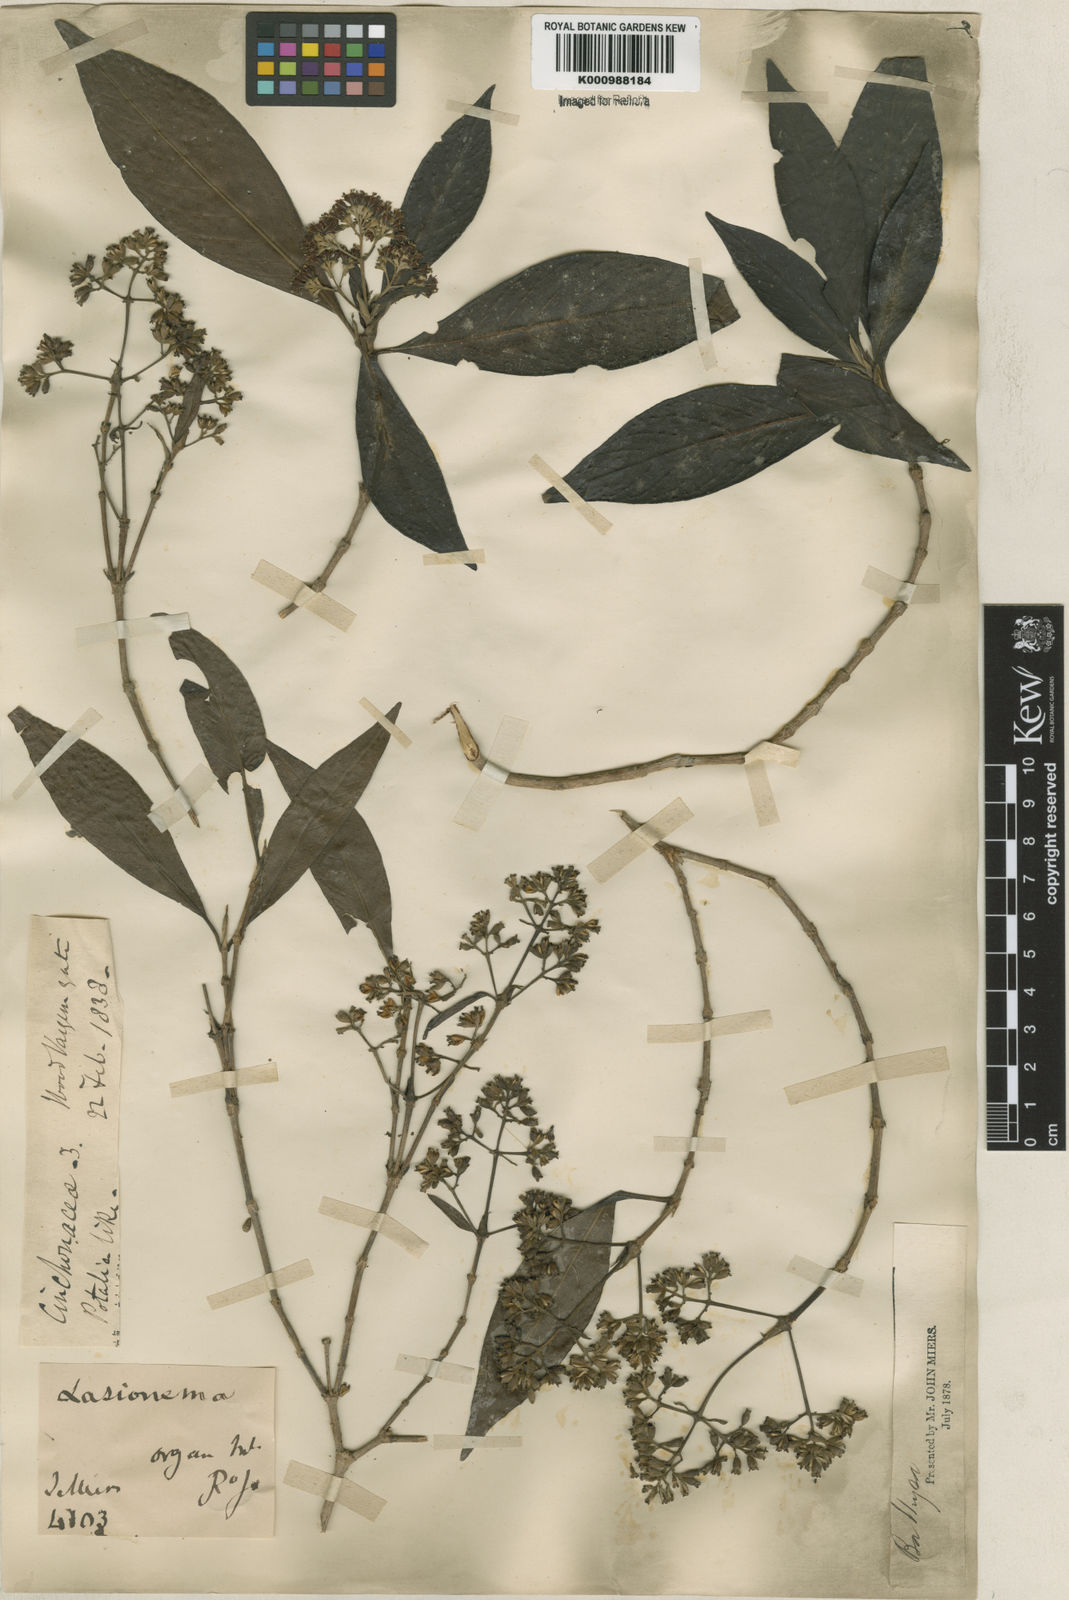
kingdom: Plantae
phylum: Tracheophyta
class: Magnoliopsida
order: Gentianales
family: Rubiaceae
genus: Bathysa
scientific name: Bathysa
